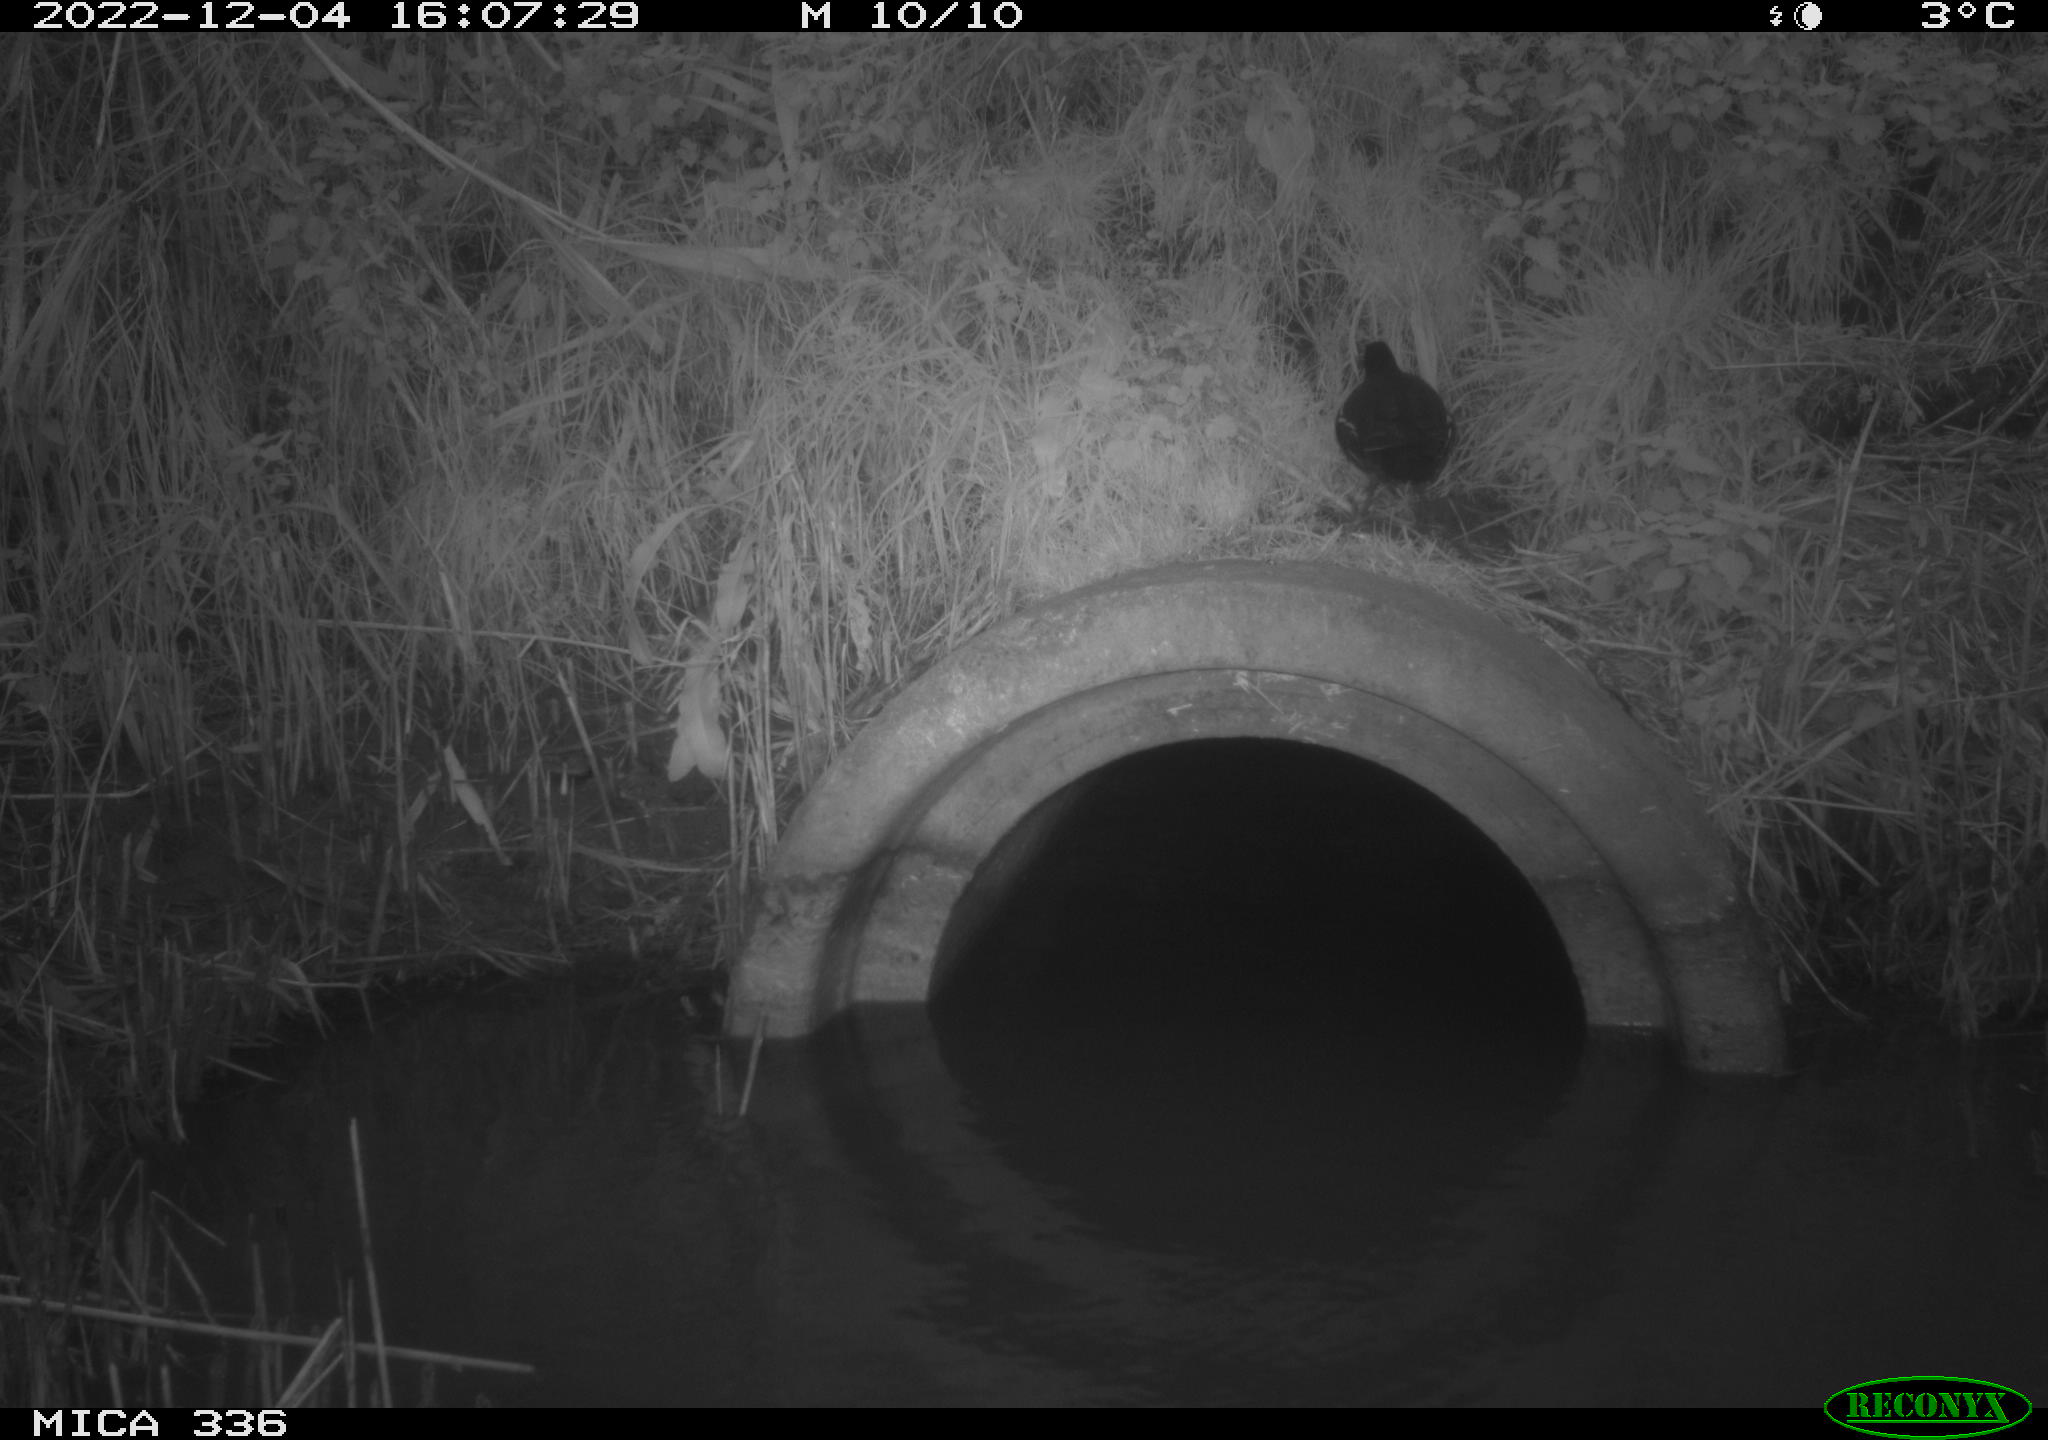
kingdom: Animalia
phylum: Chordata
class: Aves
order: Gruiformes
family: Rallidae
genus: Gallinula
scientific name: Gallinula chloropus
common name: Common moorhen
